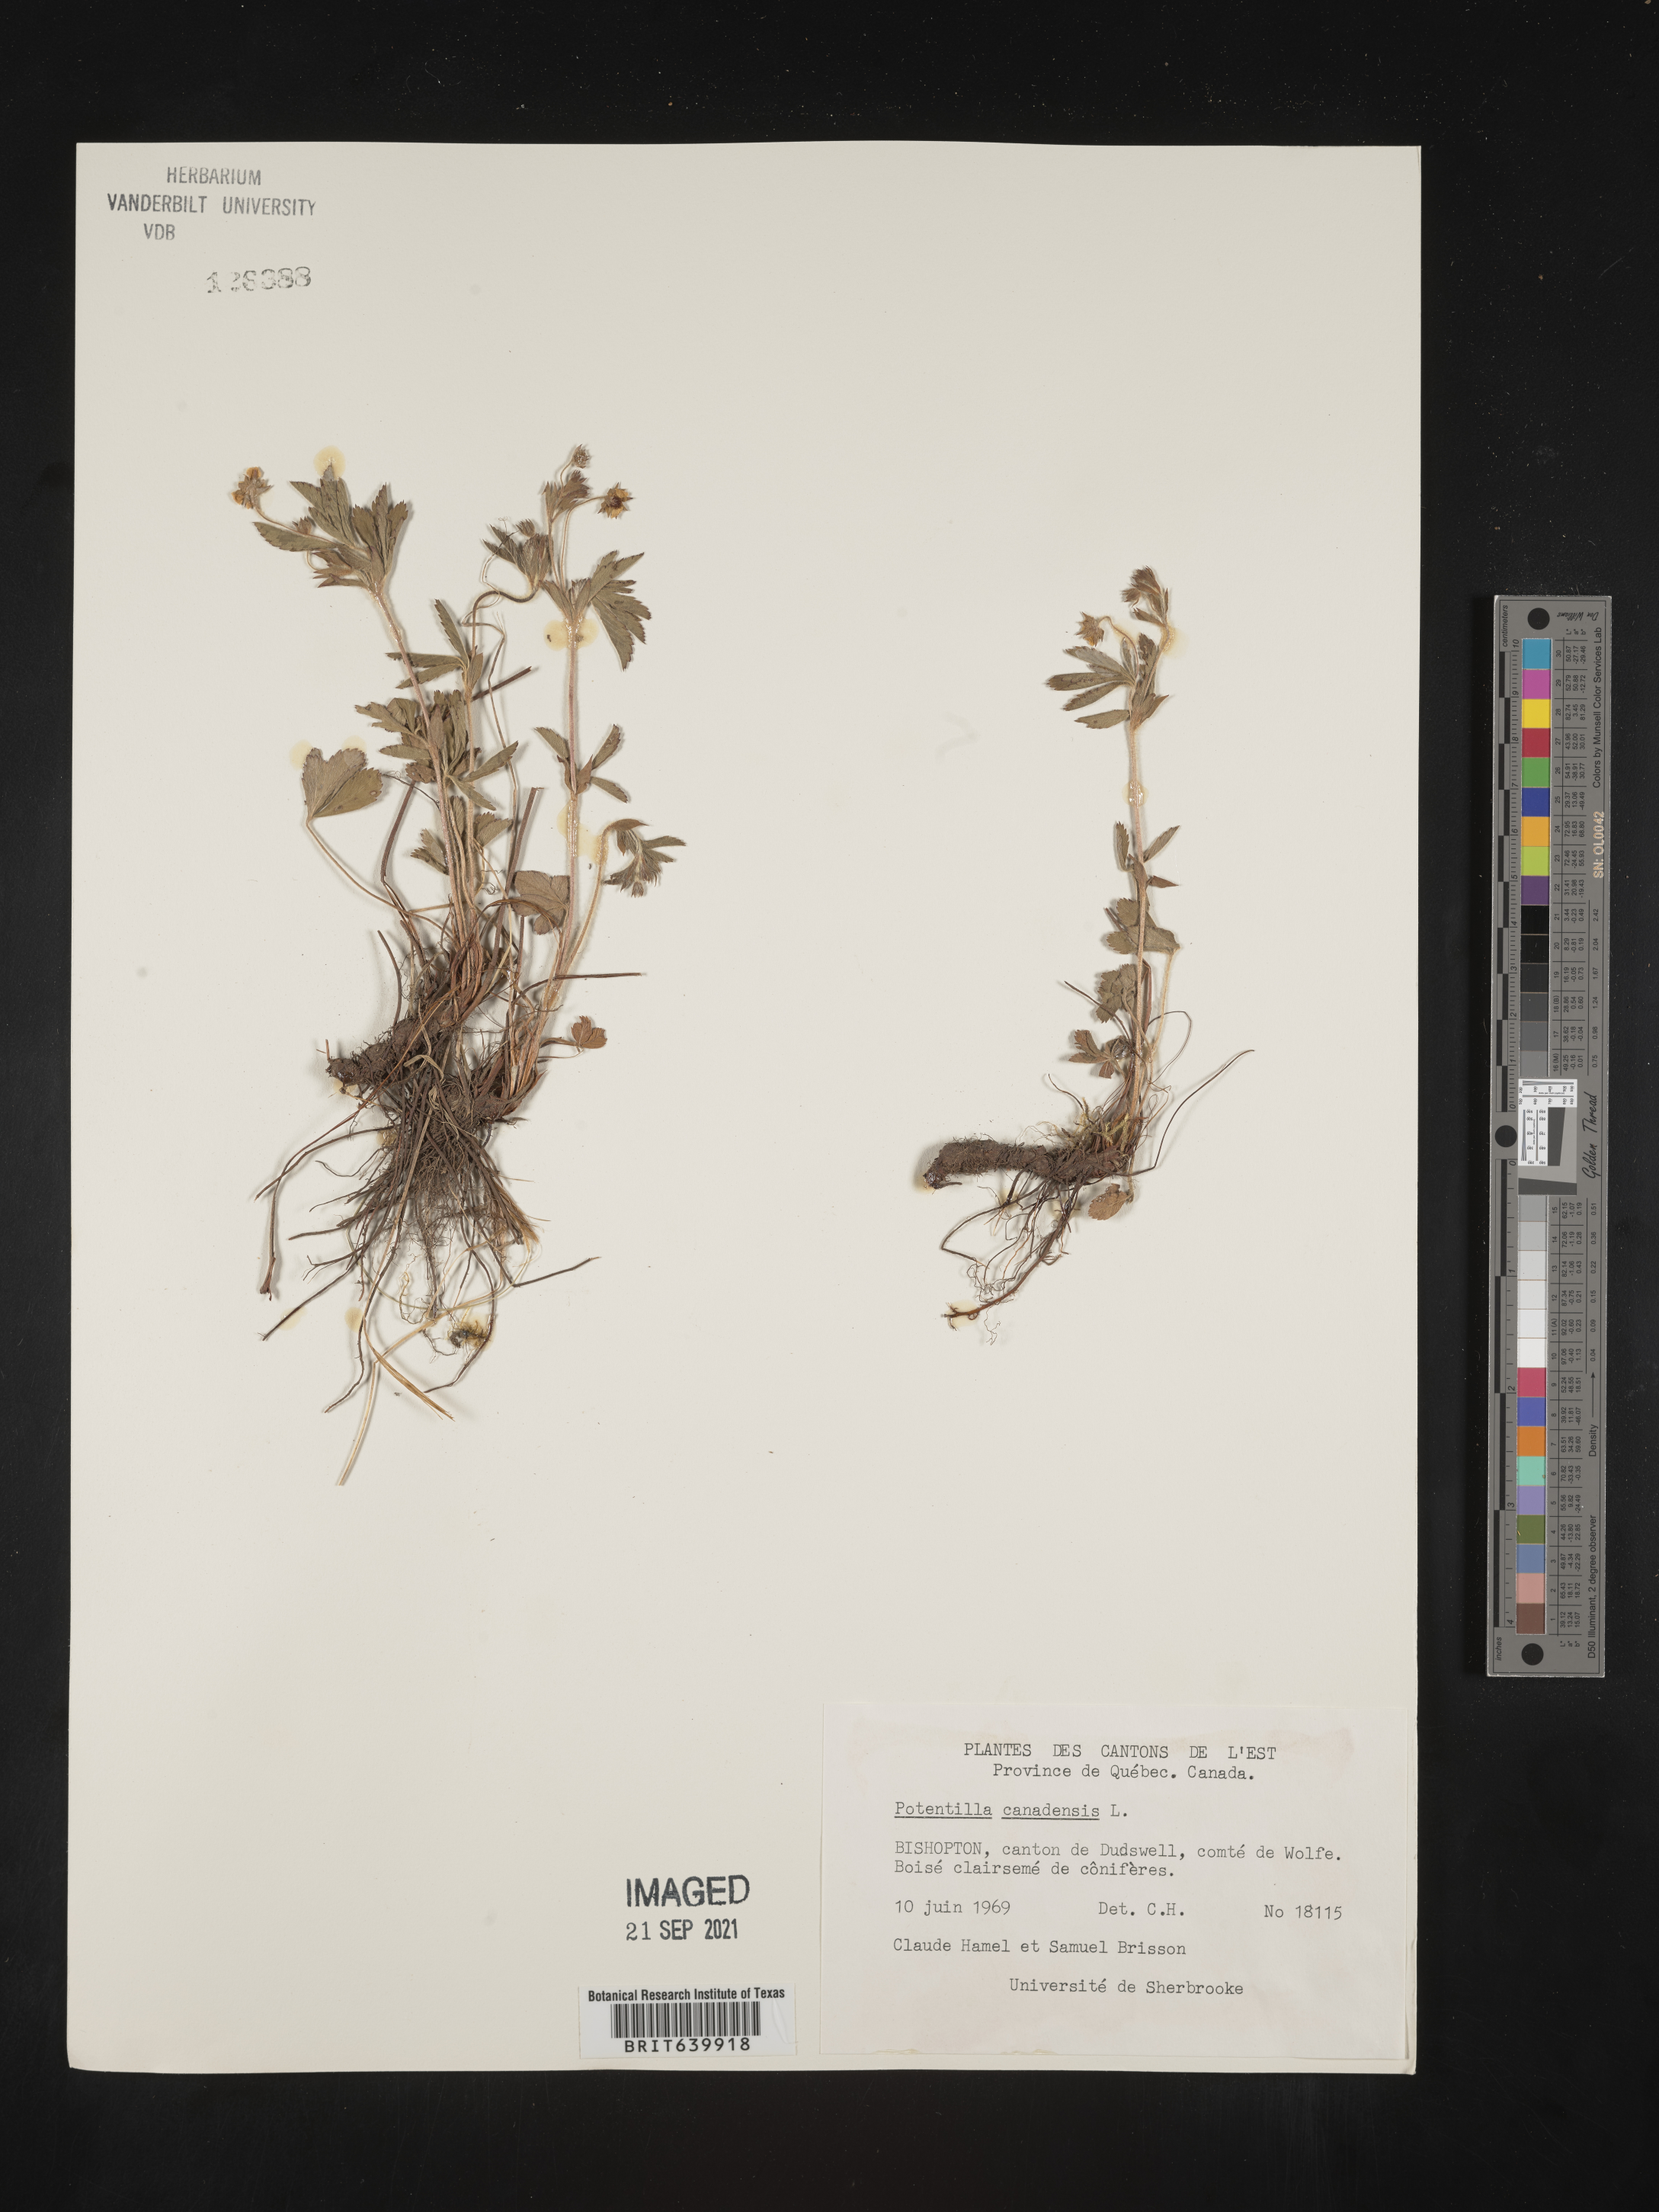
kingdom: Plantae
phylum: Tracheophyta
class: Magnoliopsida
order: Rosales
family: Rosaceae
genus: Potentilla
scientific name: Potentilla
